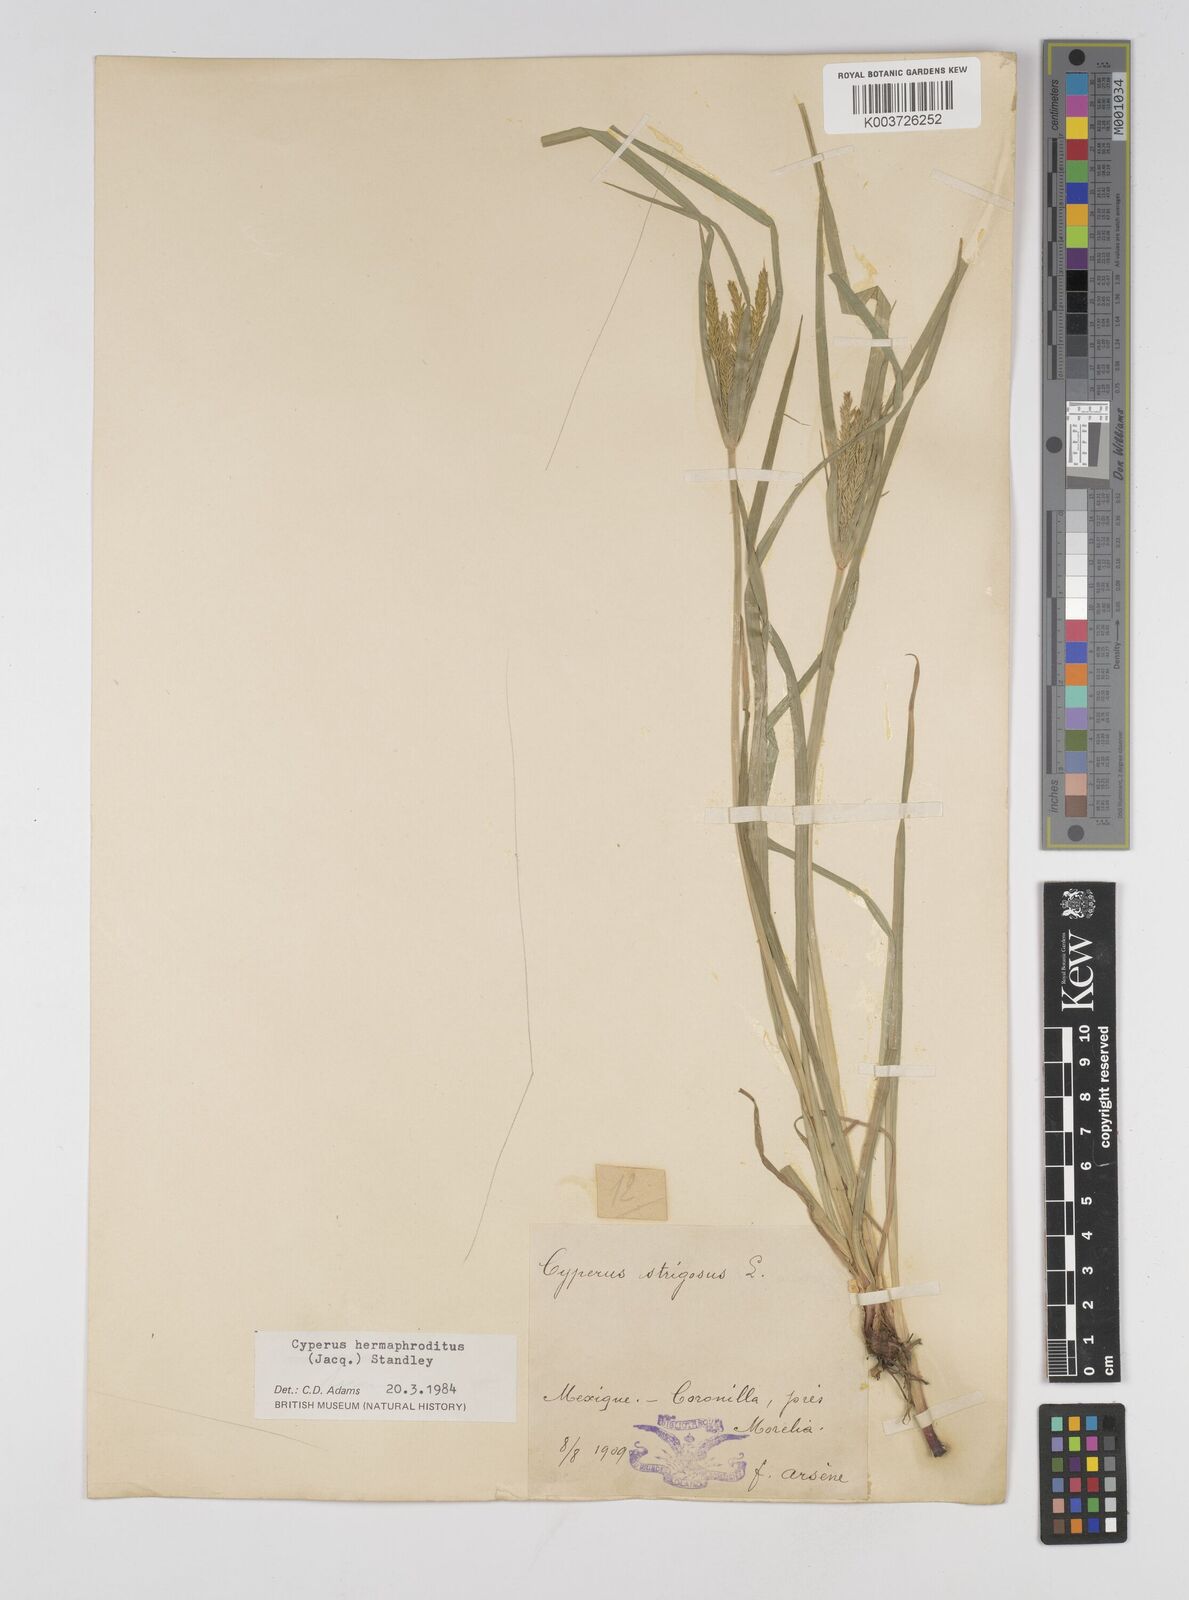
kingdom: Plantae
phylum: Tracheophyta
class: Liliopsida
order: Poales
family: Cyperaceae
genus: Cyperus
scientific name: Cyperus hermaphroditus
